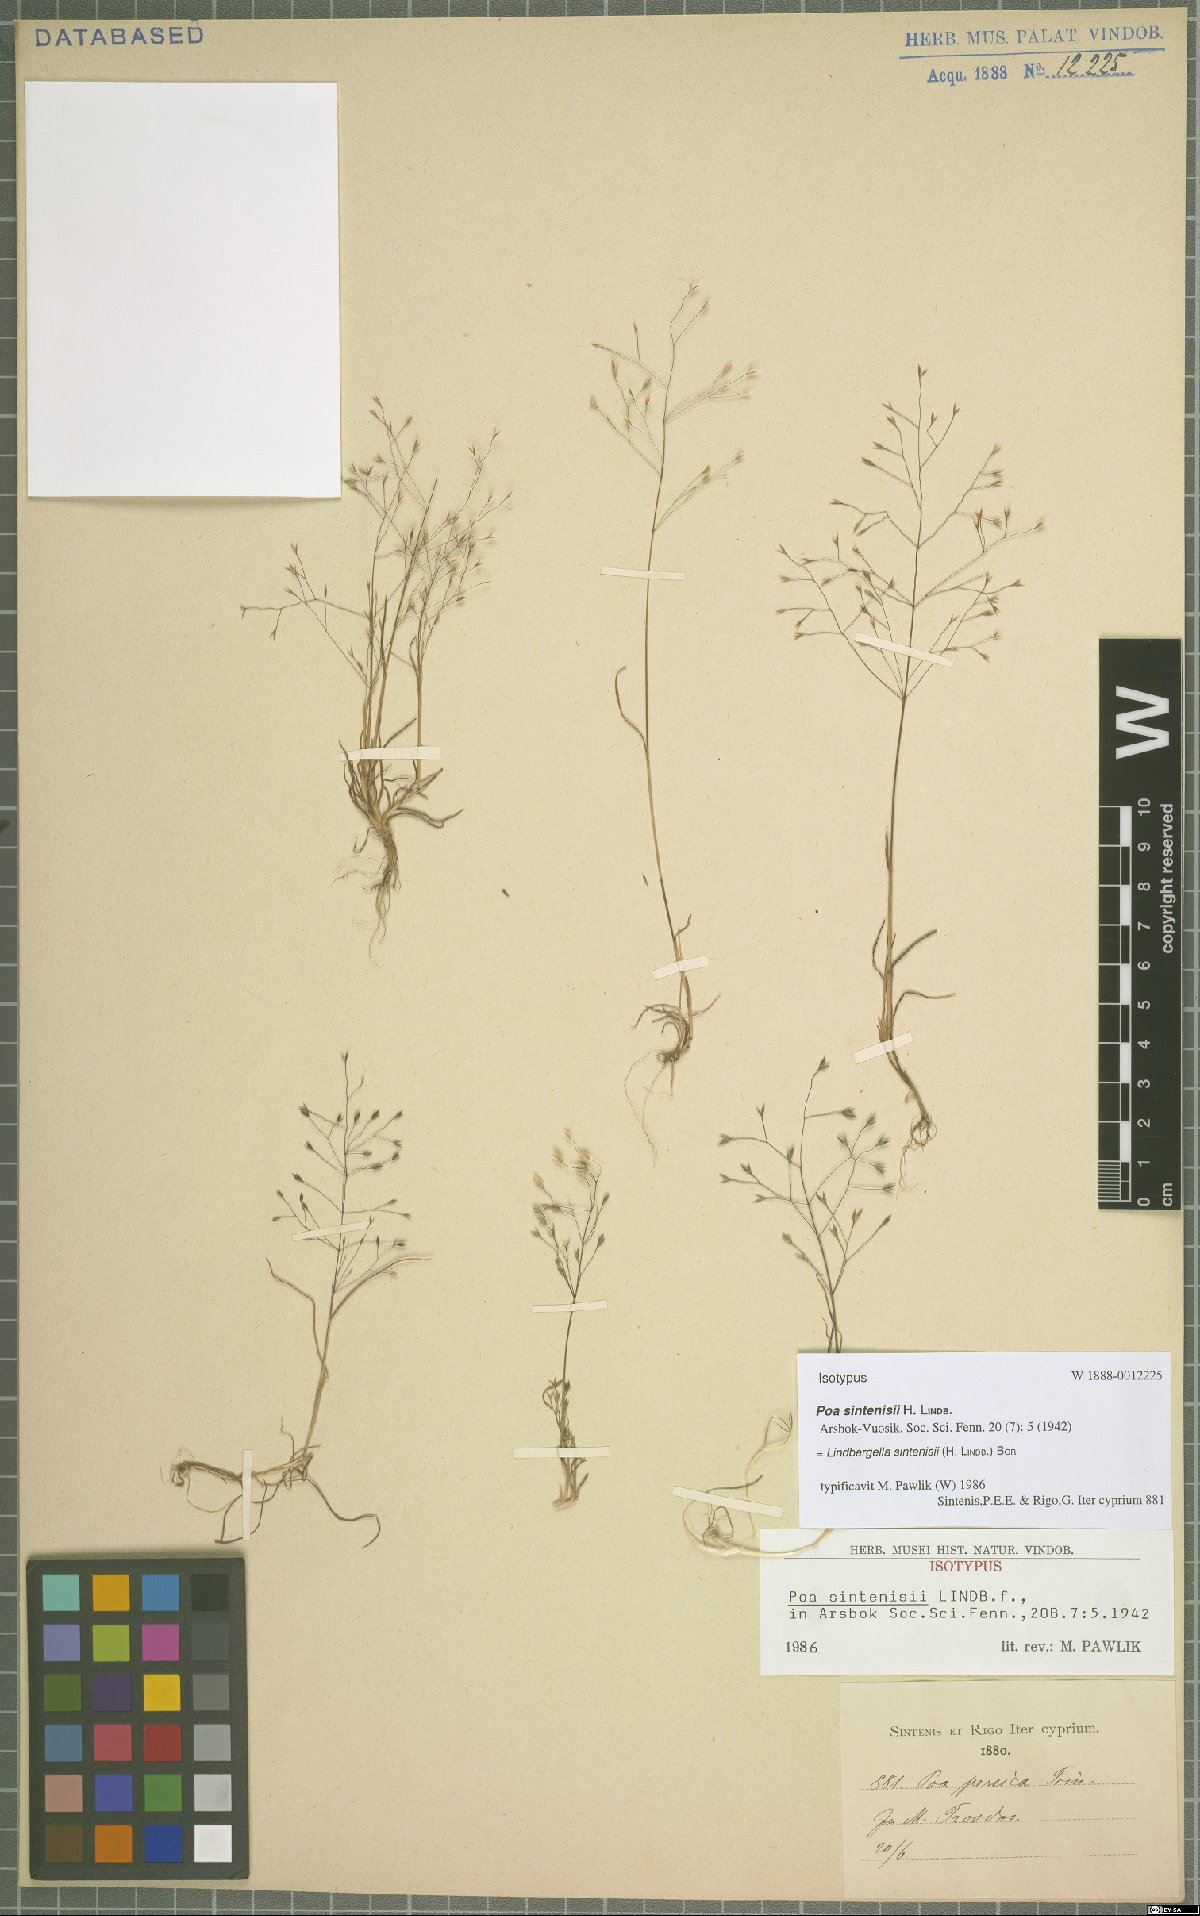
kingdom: Plantae
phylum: Tracheophyta
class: Liliopsida
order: Poales
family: Poaceae
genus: Poa
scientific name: Poa sintenisii
